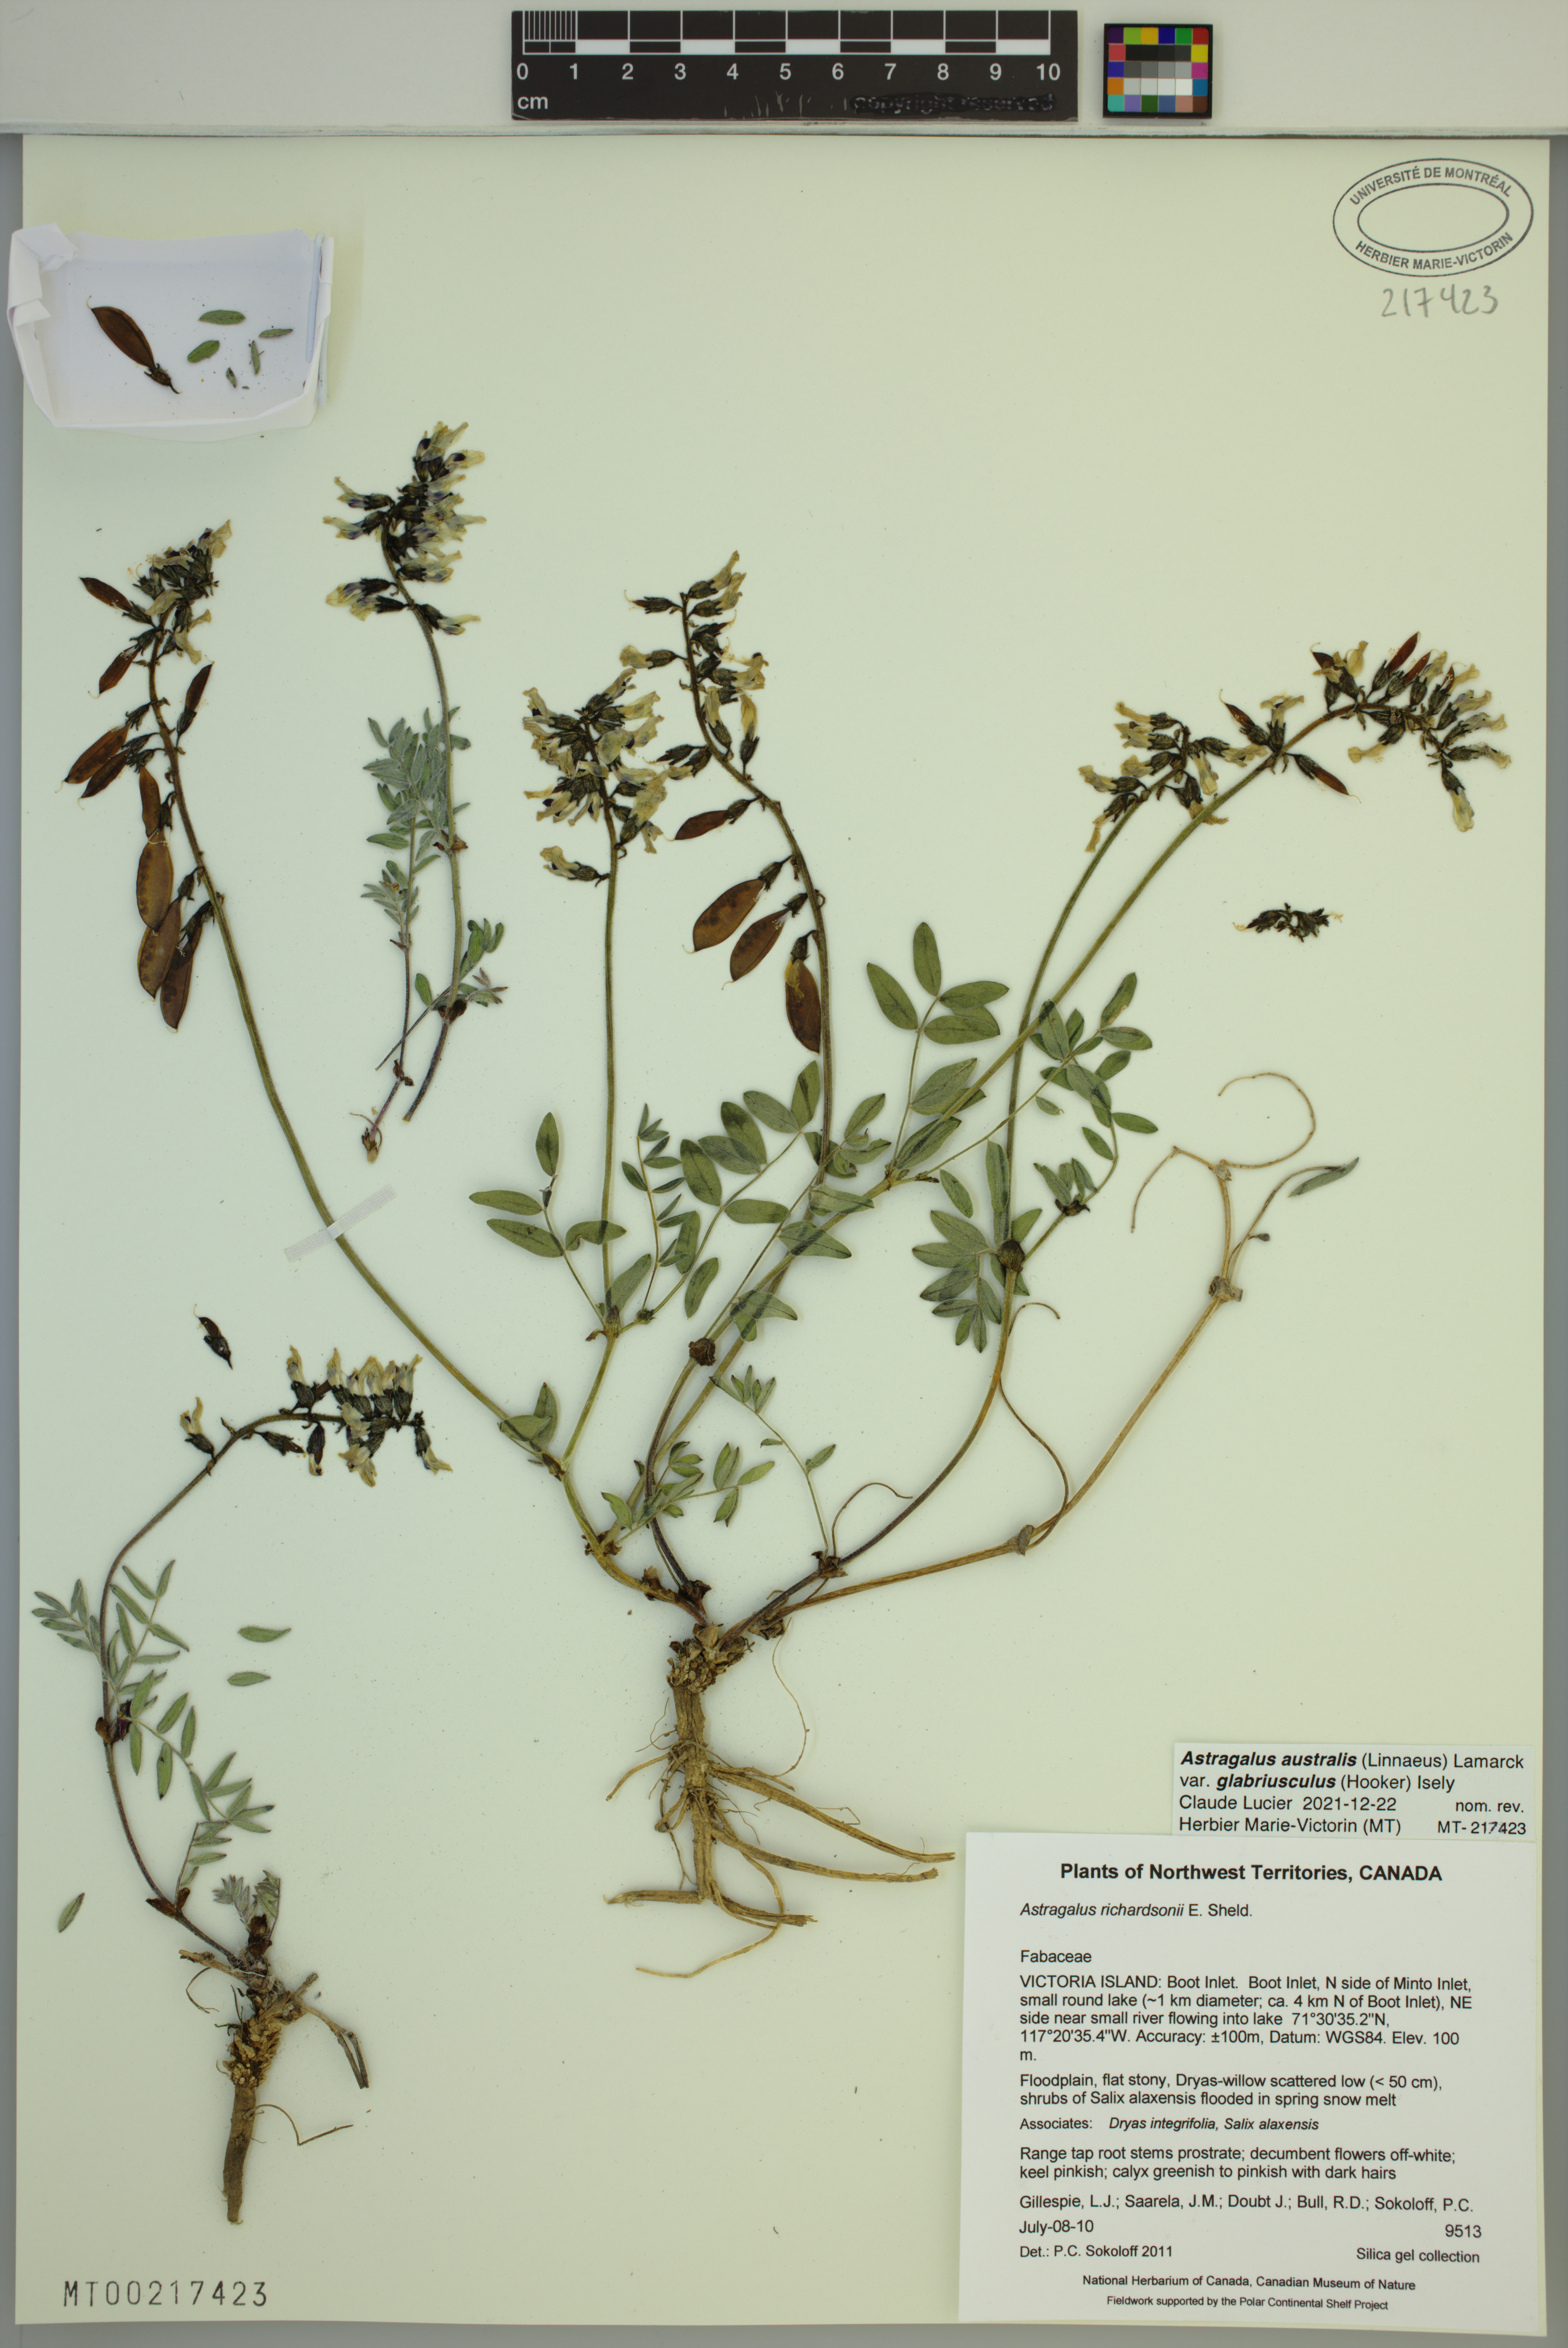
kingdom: Plantae
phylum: Tracheophyta
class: Magnoliopsida
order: Fabales
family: Fabaceae
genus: Astragalus
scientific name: Astragalus aboriginorum
